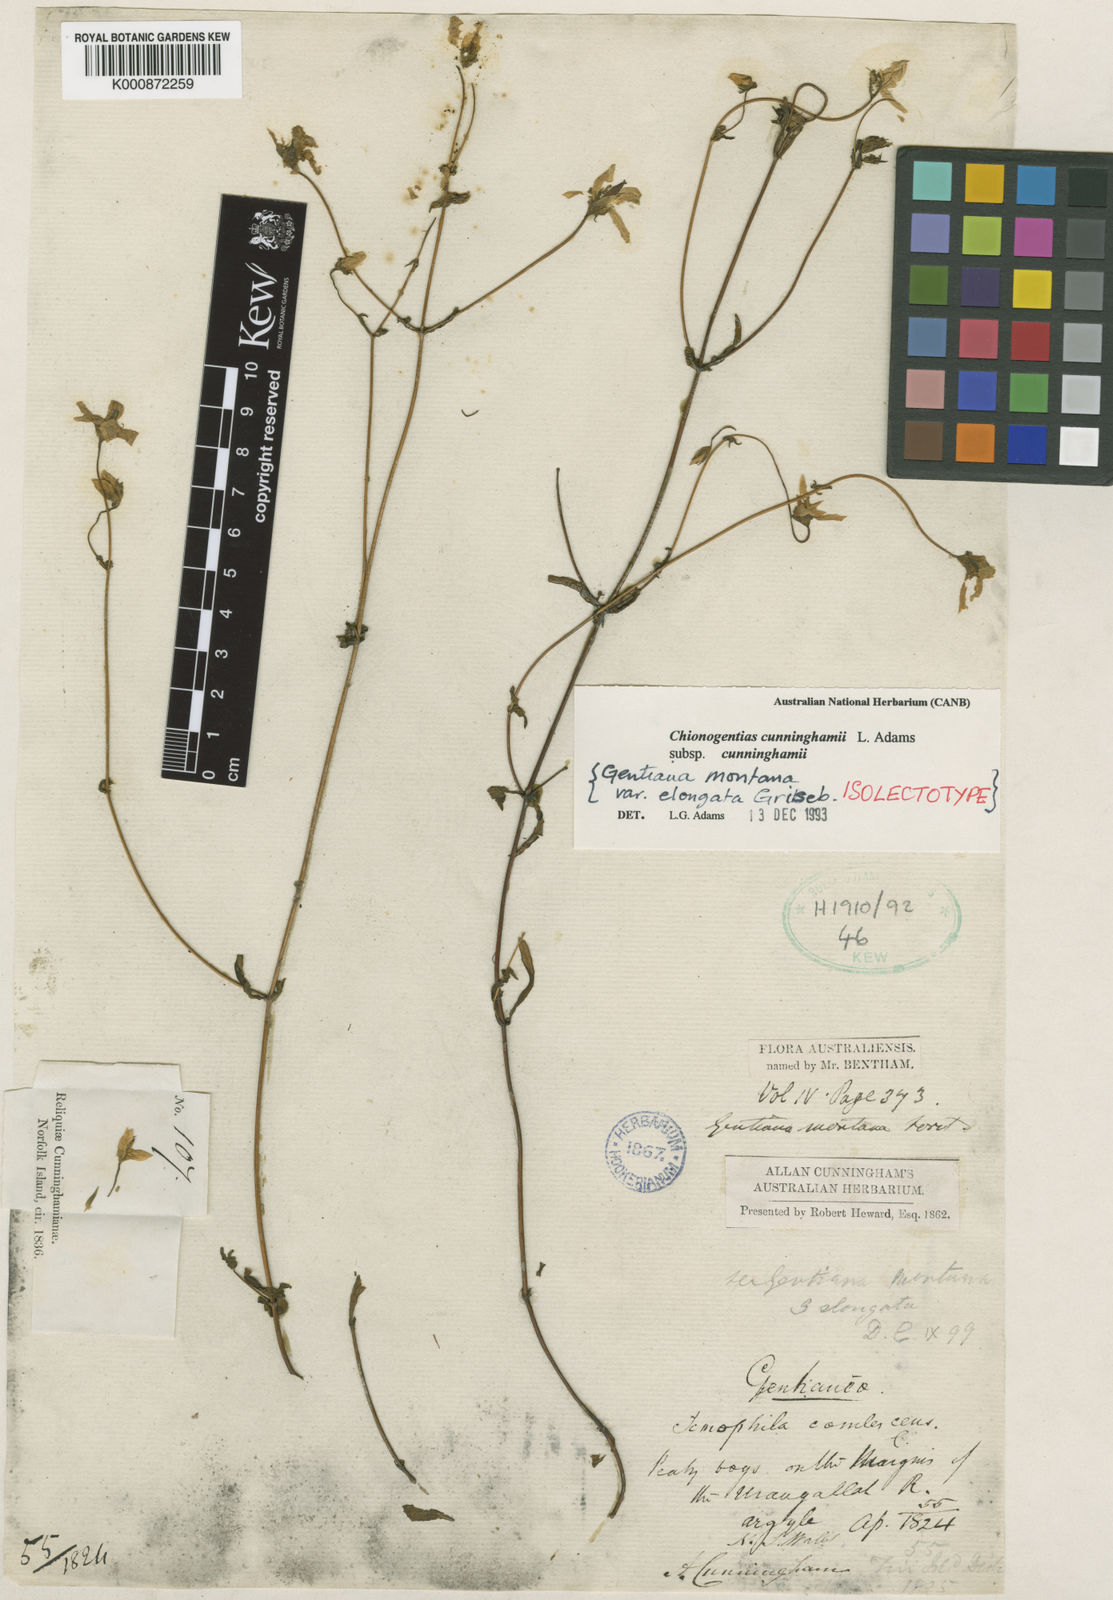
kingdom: Plantae
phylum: Tracheophyta
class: Magnoliopsida
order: Gentianales
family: Gentianaceae
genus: Gentianella
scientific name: Gentianella cunninghamii
